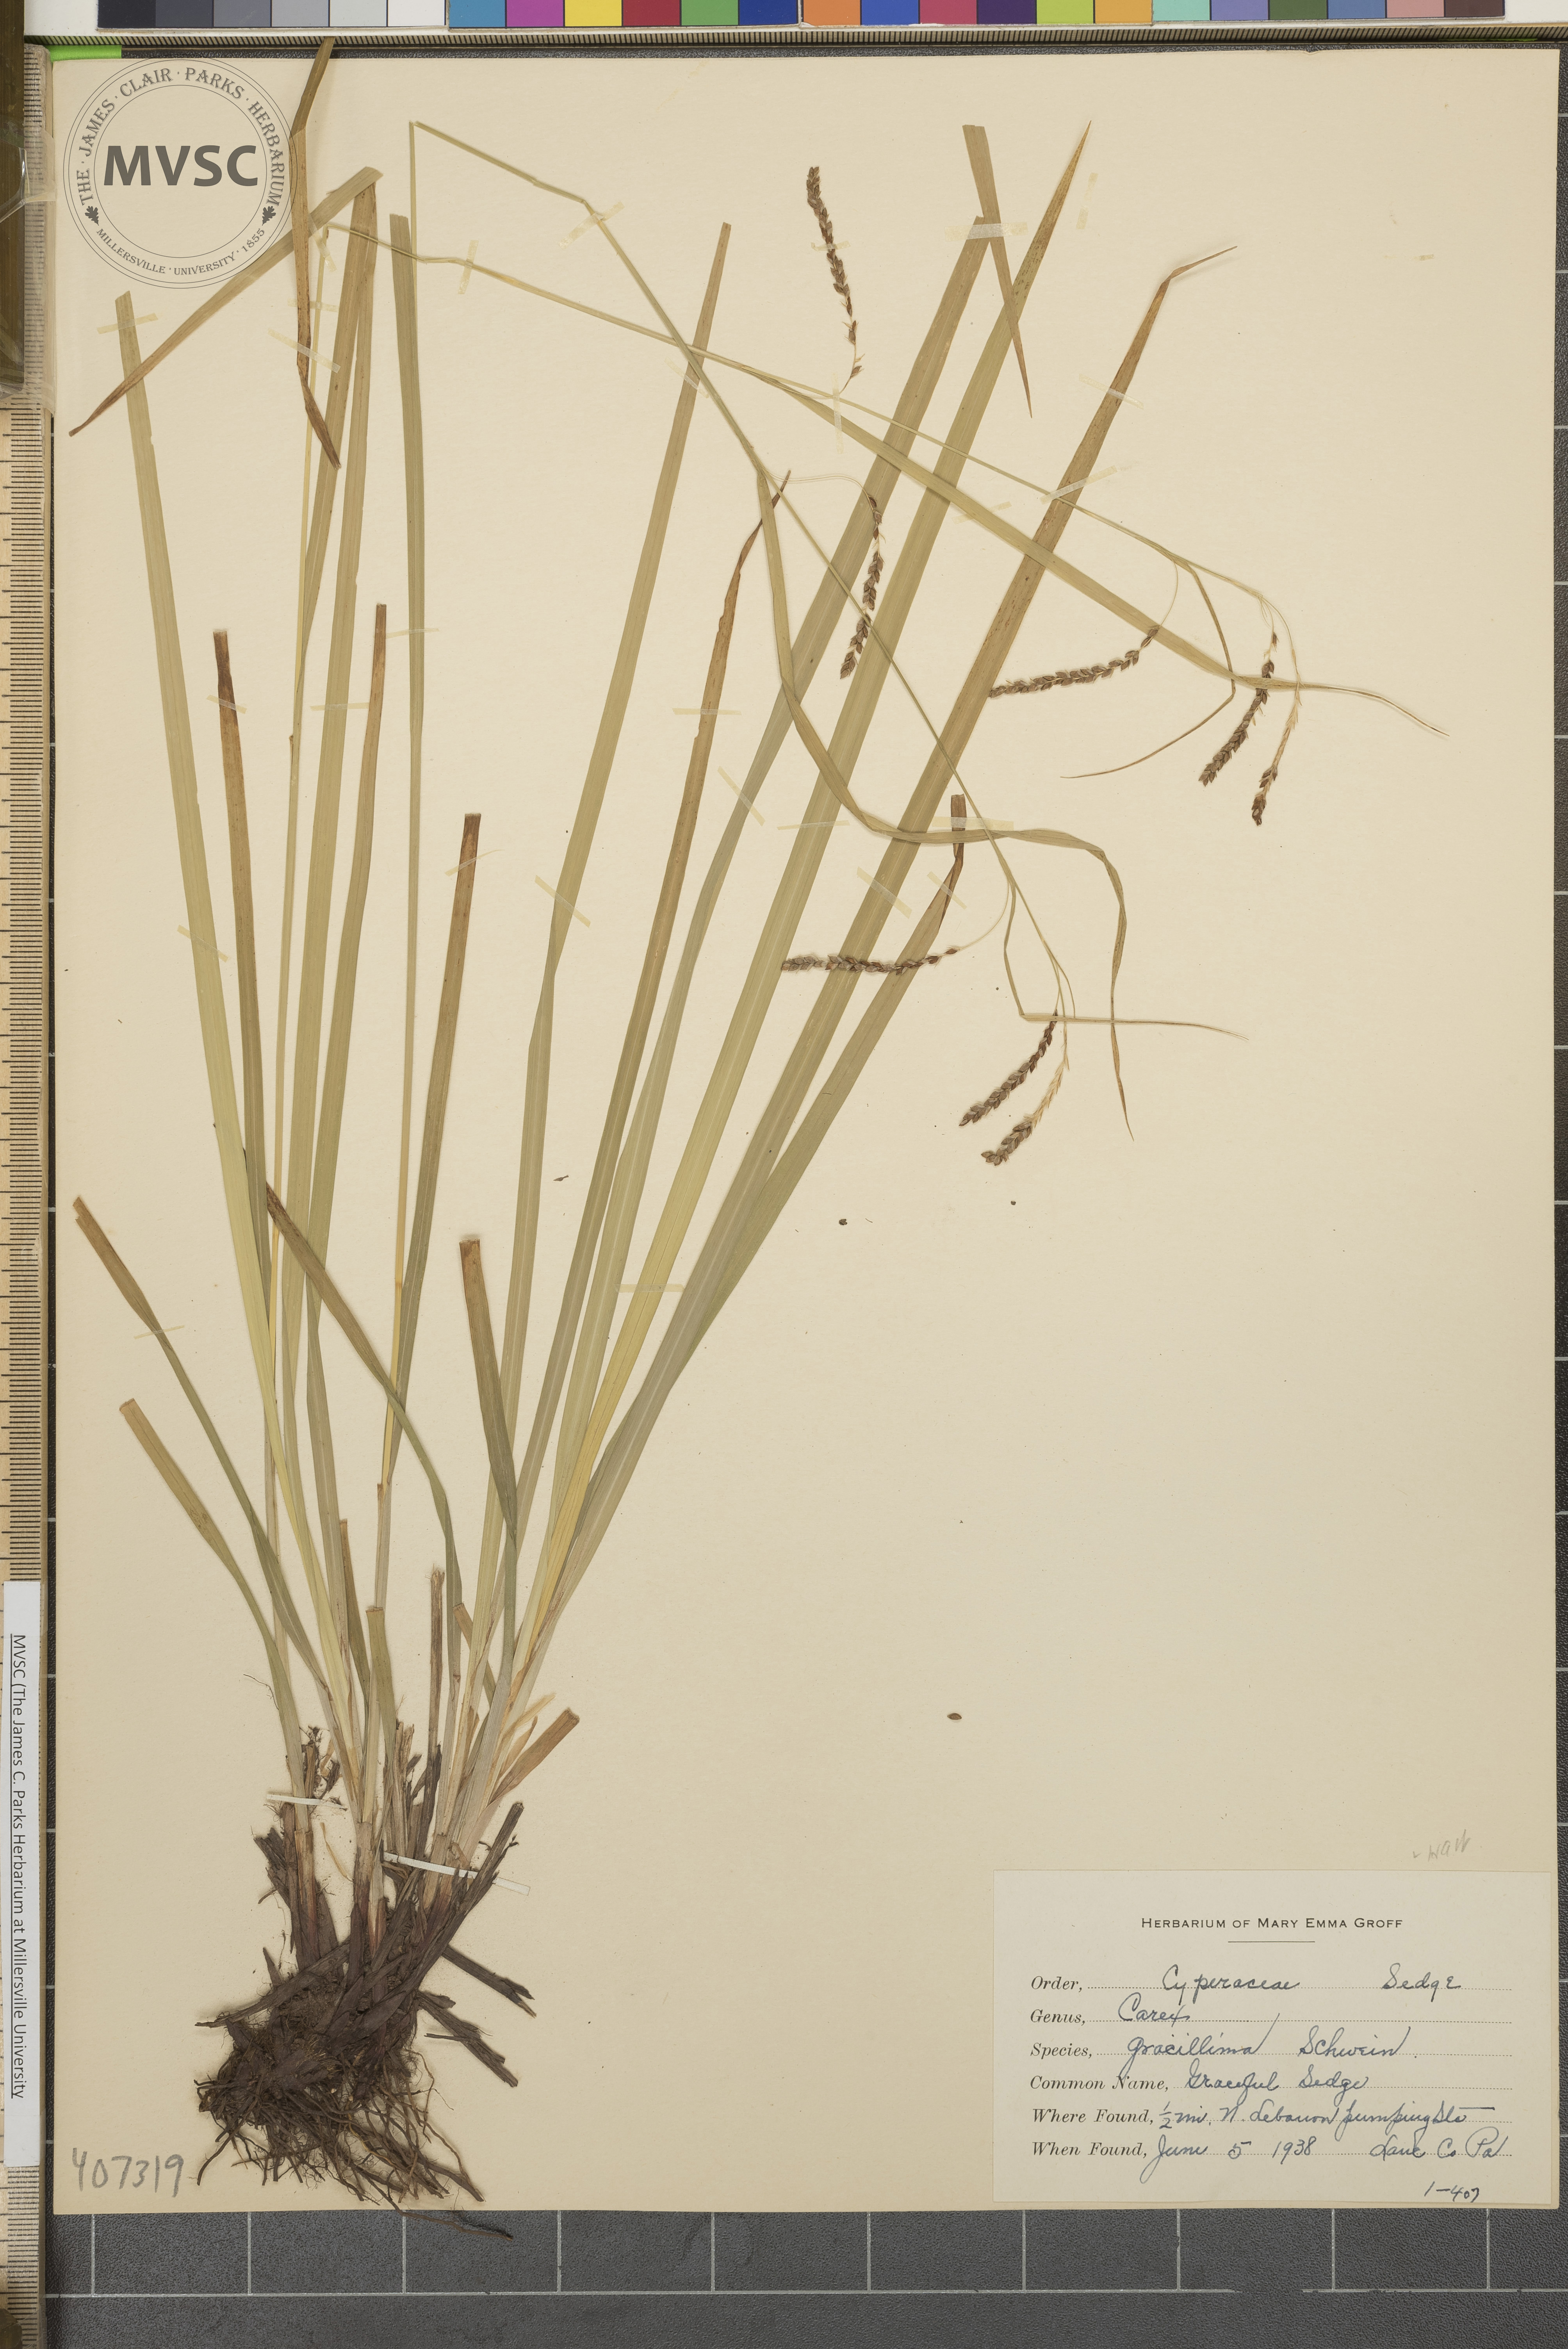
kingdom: Plantae
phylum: Tracheophyta
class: Liliopsida
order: Poales
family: Cyperaceae
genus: Carex
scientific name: Carex gracillima
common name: Graceful Sedge
